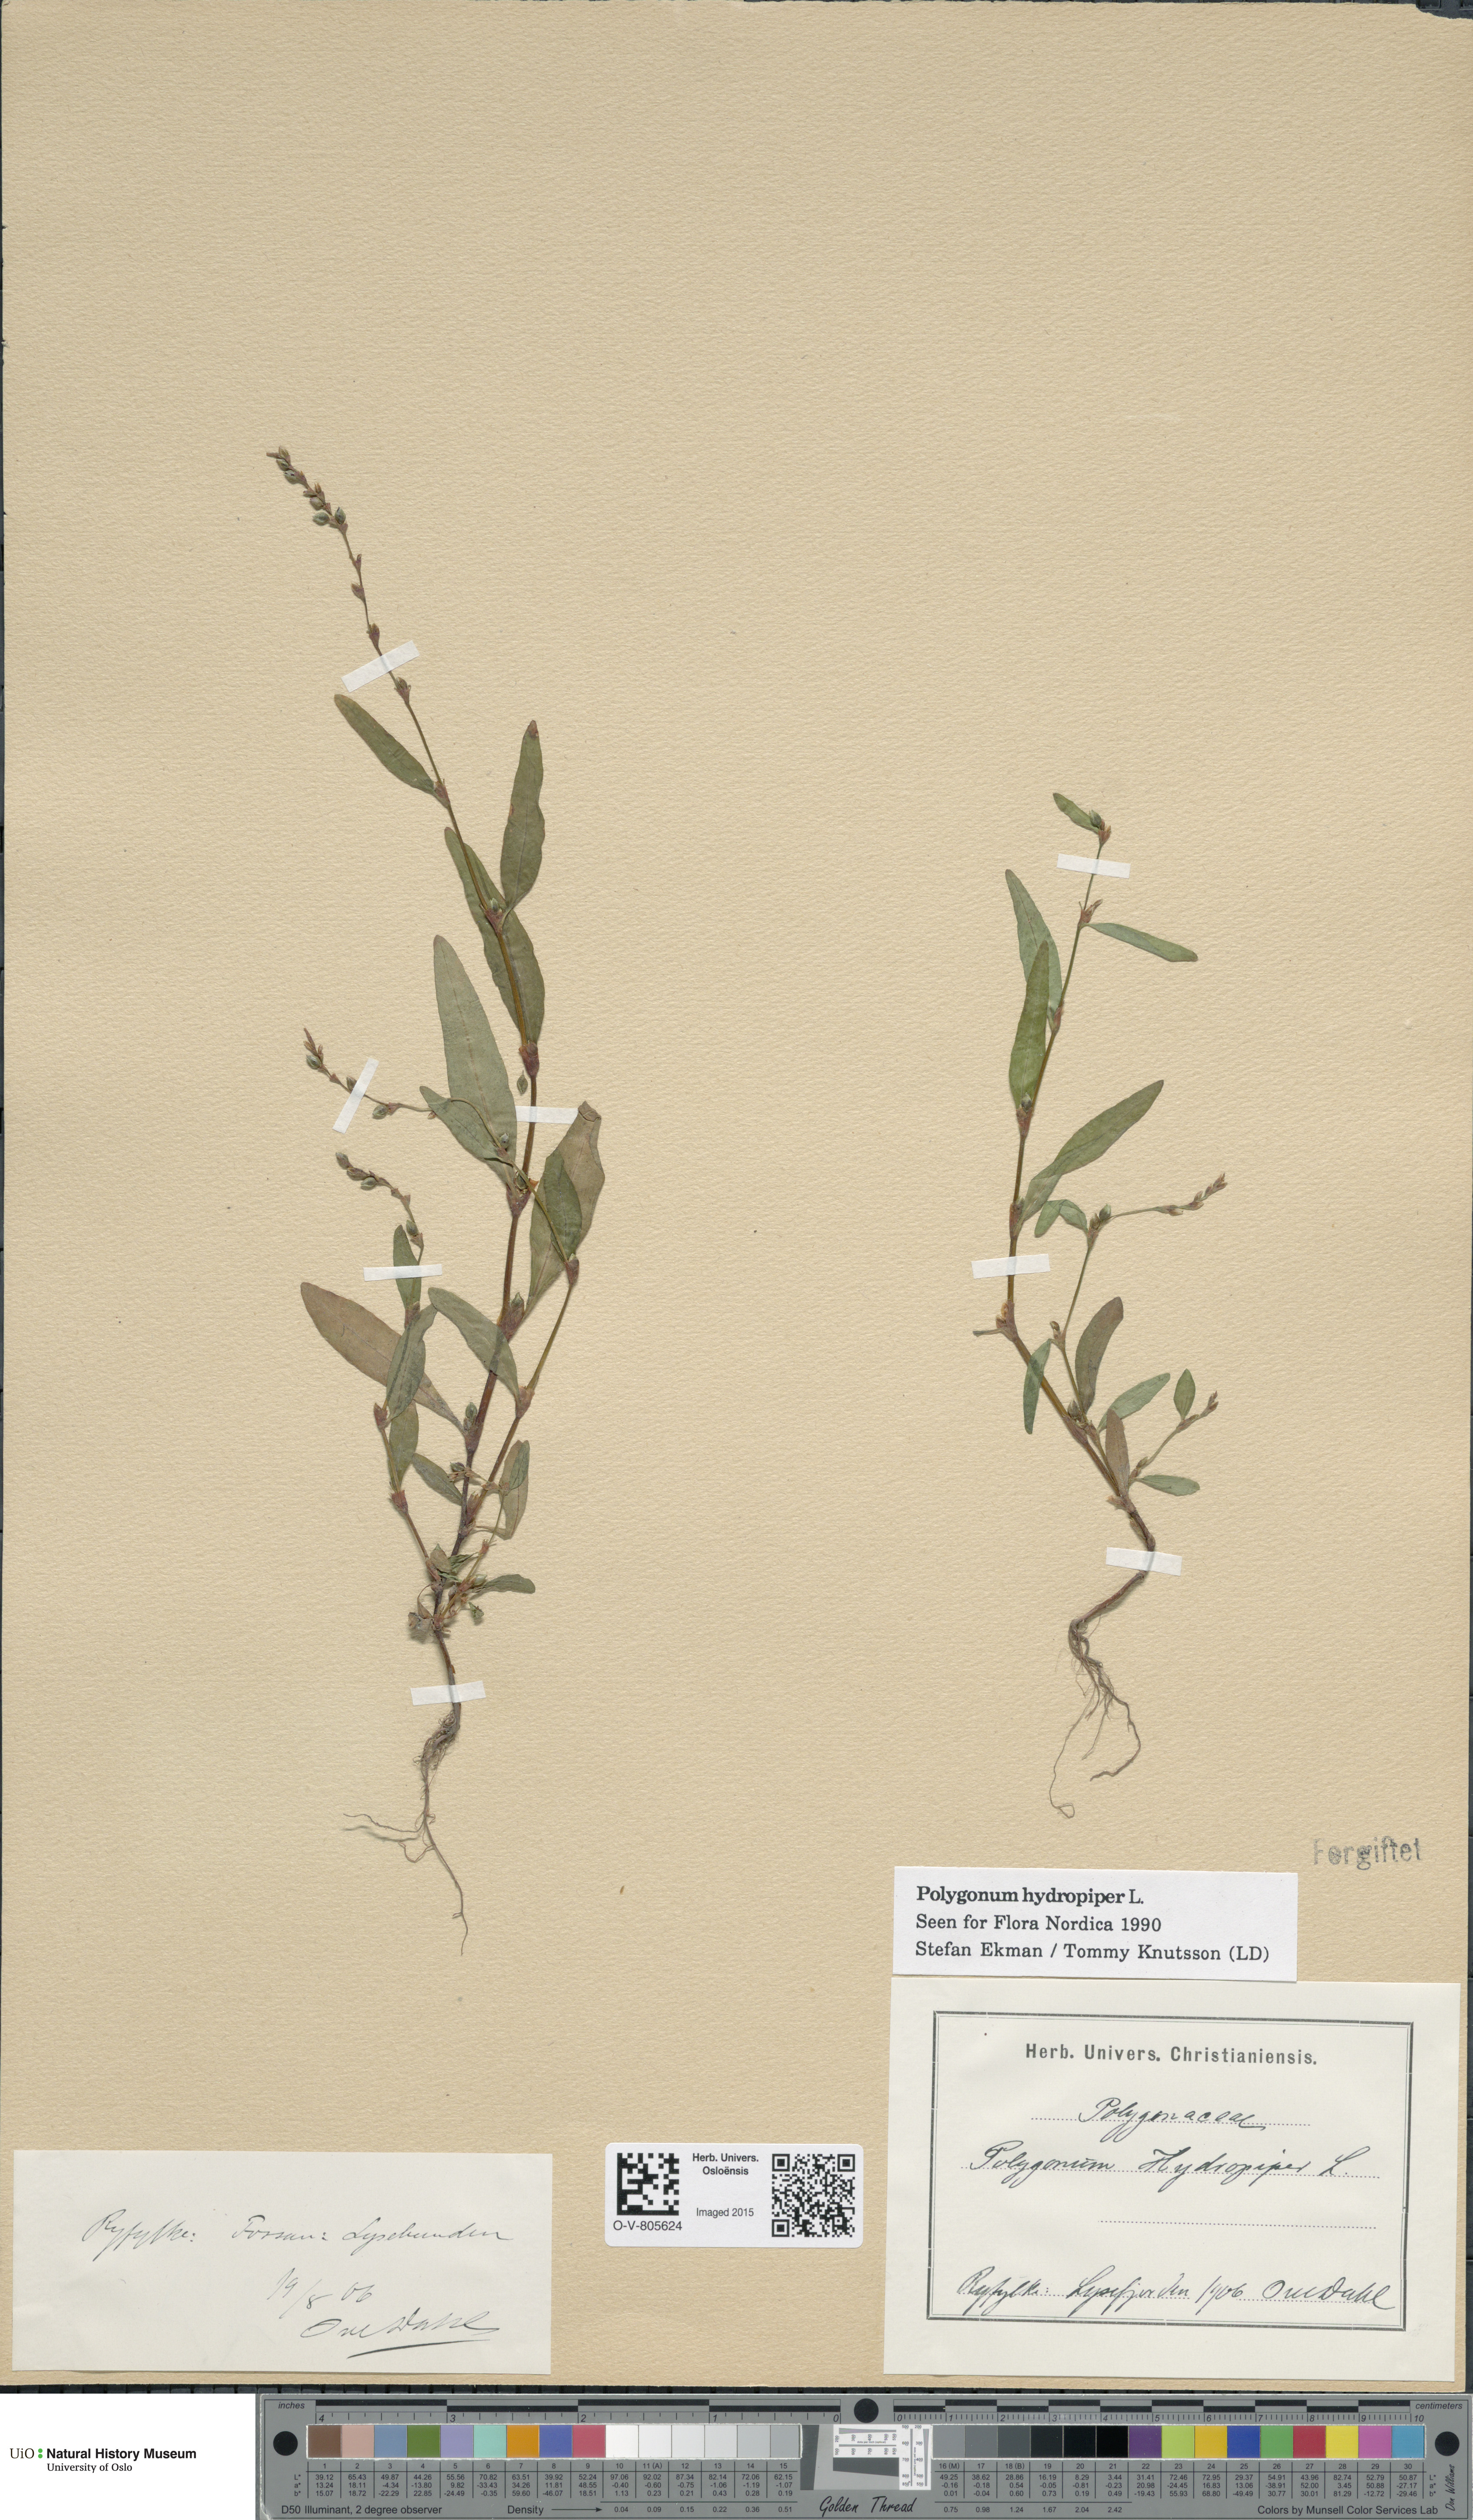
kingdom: Plantae
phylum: Tracheophyta
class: Magnoliopsida
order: Caryophyllales
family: Polygonaceae
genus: Persicaria
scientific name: Persicaria hydropiper
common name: Water-pepper
